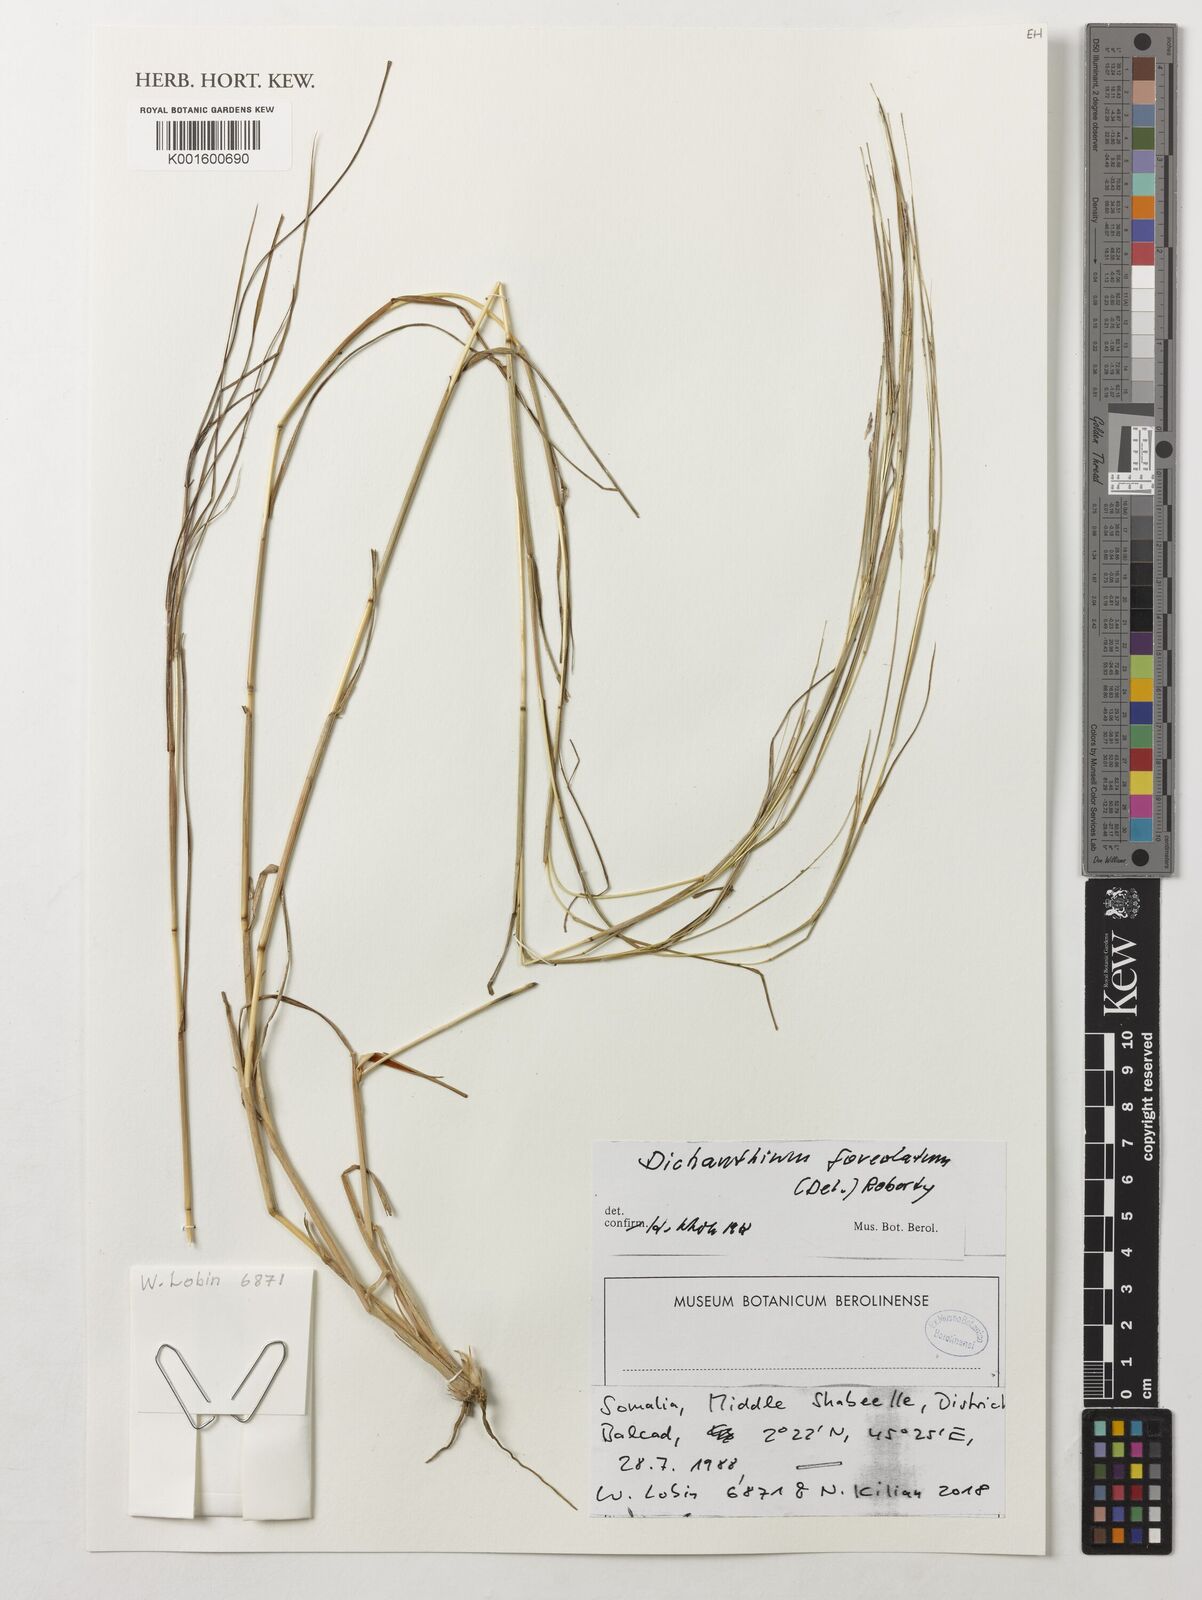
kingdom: Plantae
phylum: Tracheophyta
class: Liliopsida
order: Poales
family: Poaceae
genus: Dichanthium
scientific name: Dichanthium foveolatum
